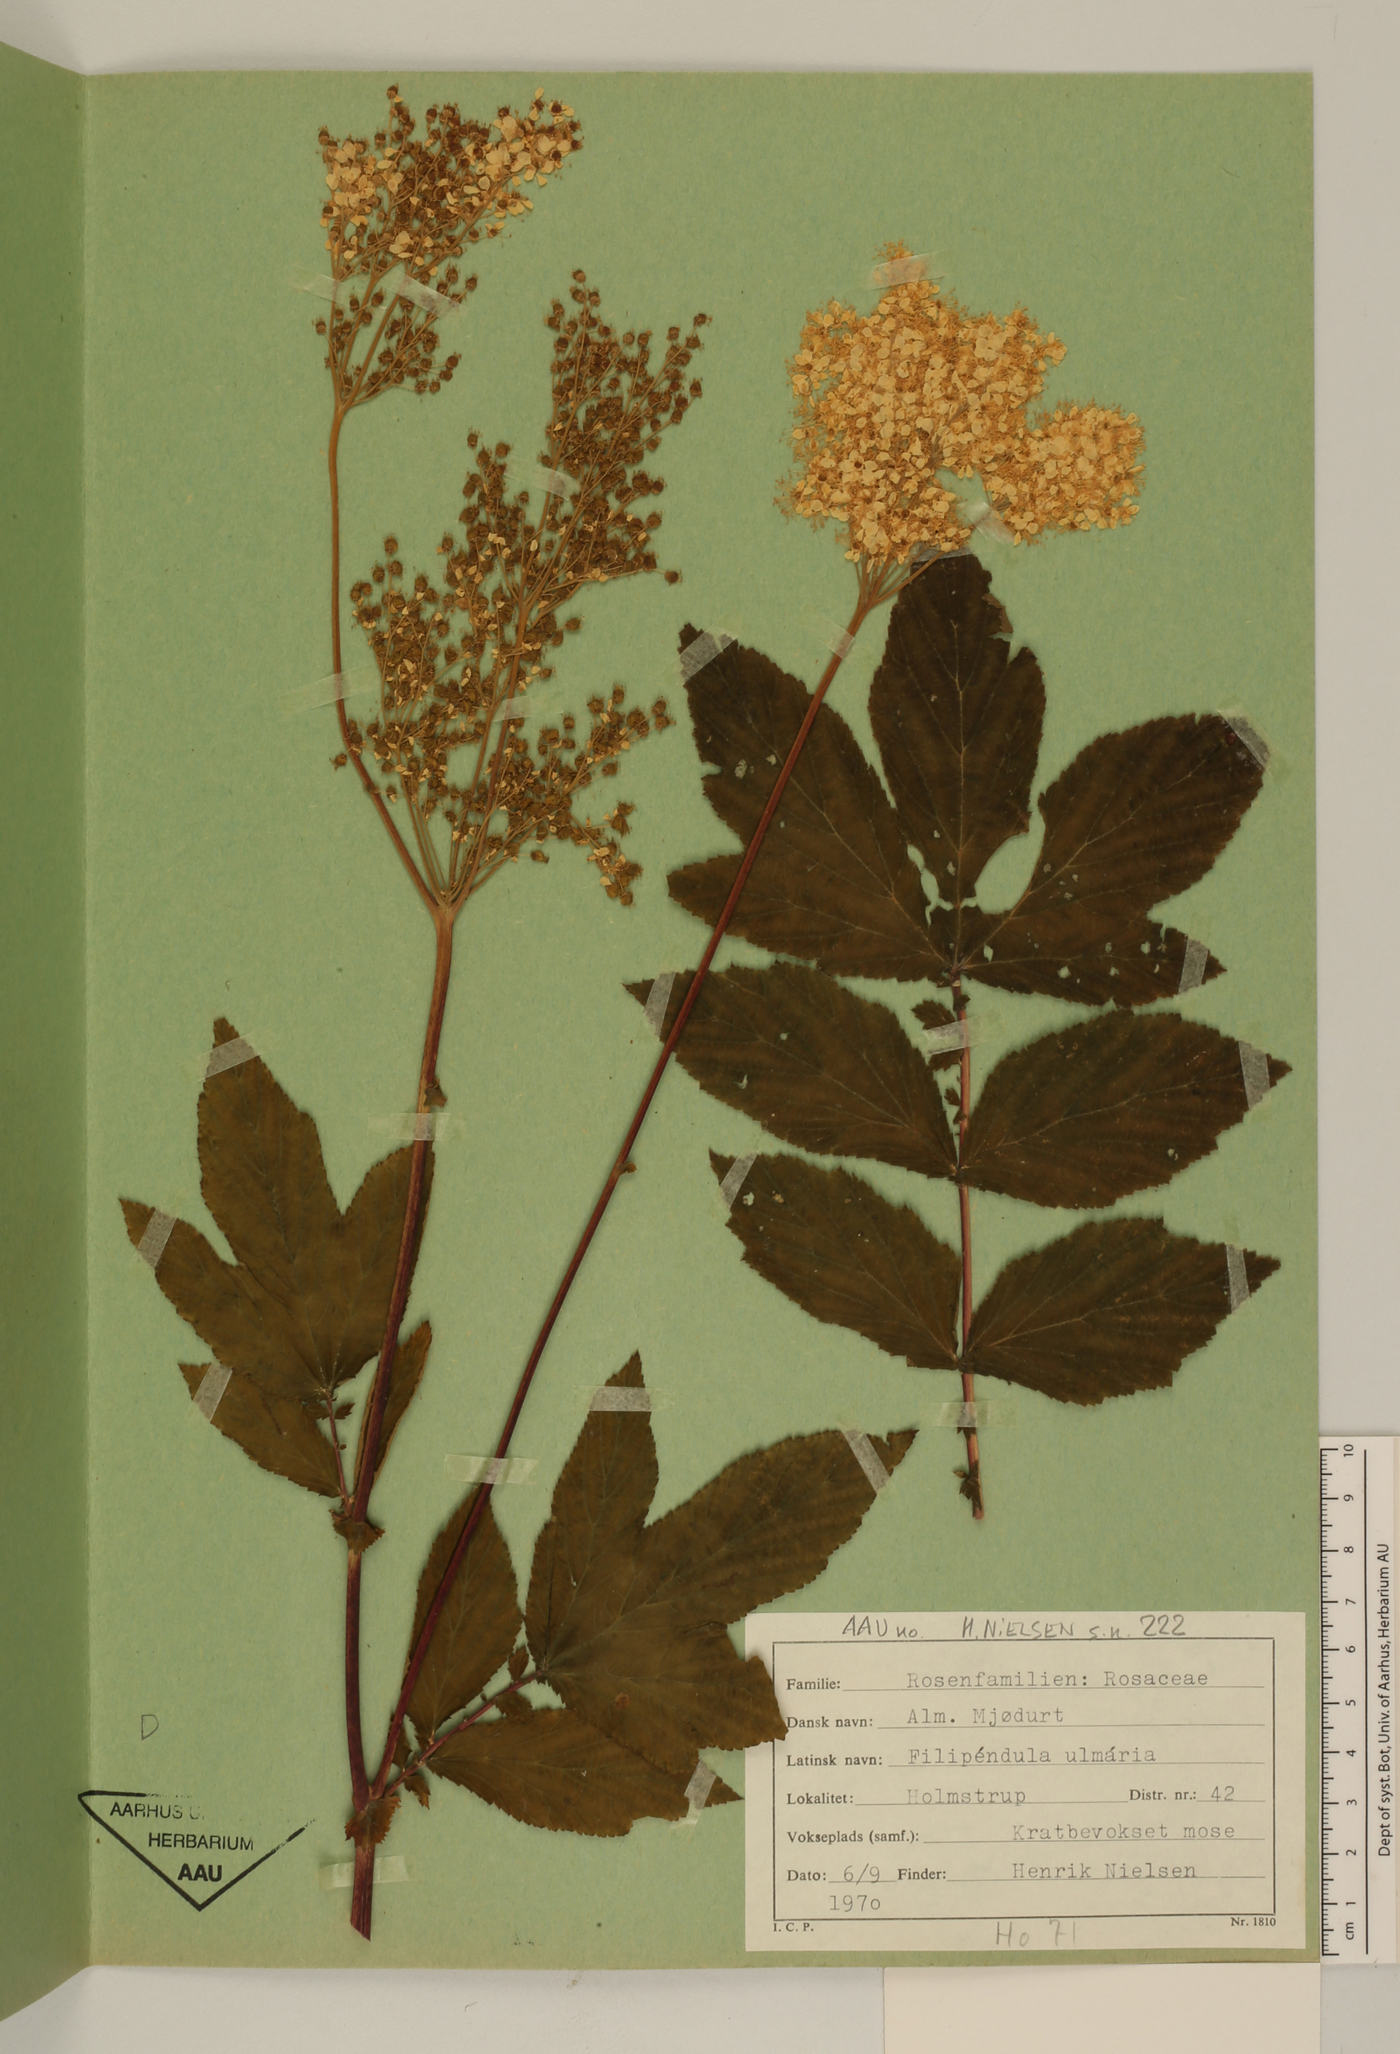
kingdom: Plantae
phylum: Tracheophyta
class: Magnoliopsida
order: Rosales
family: Rosaceae
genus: Filipendula
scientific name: Filipendula ulmaria
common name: Meadowsweet
